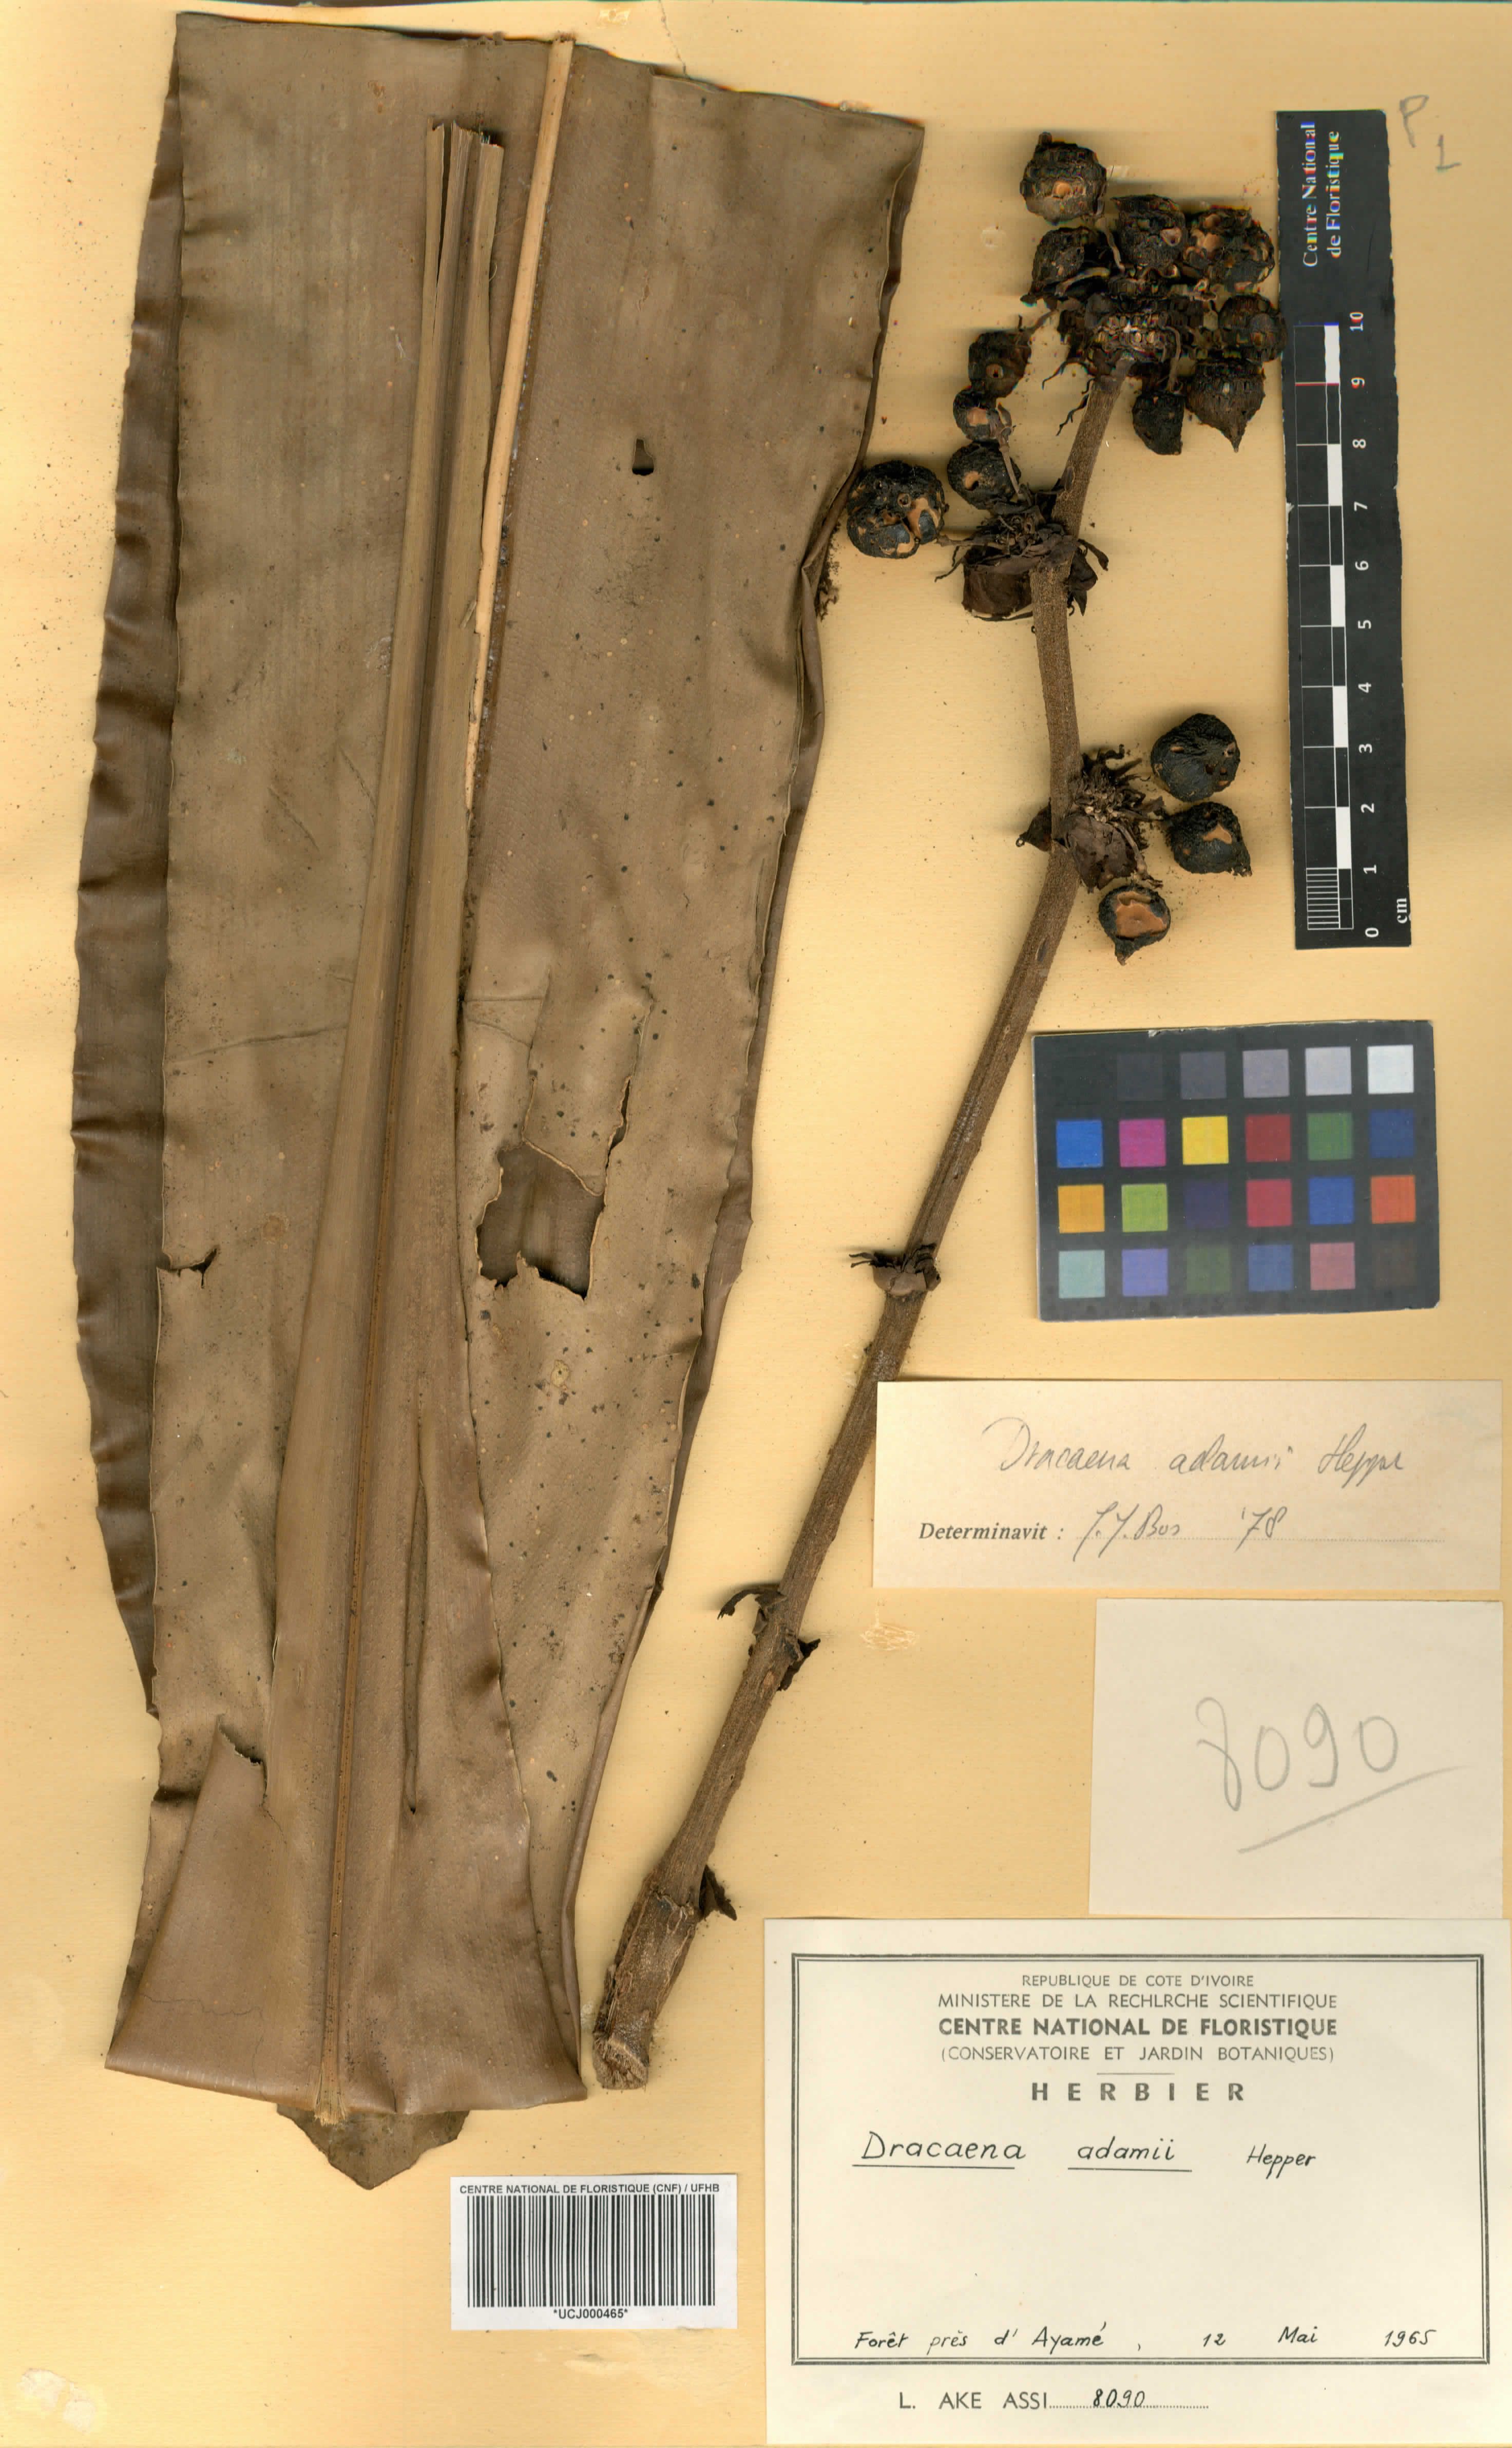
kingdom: Plantae
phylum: Tracheophyta
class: Liliopsida
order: Asparagales
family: Asparagaceae
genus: Dracaena
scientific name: Dracaena adamii
